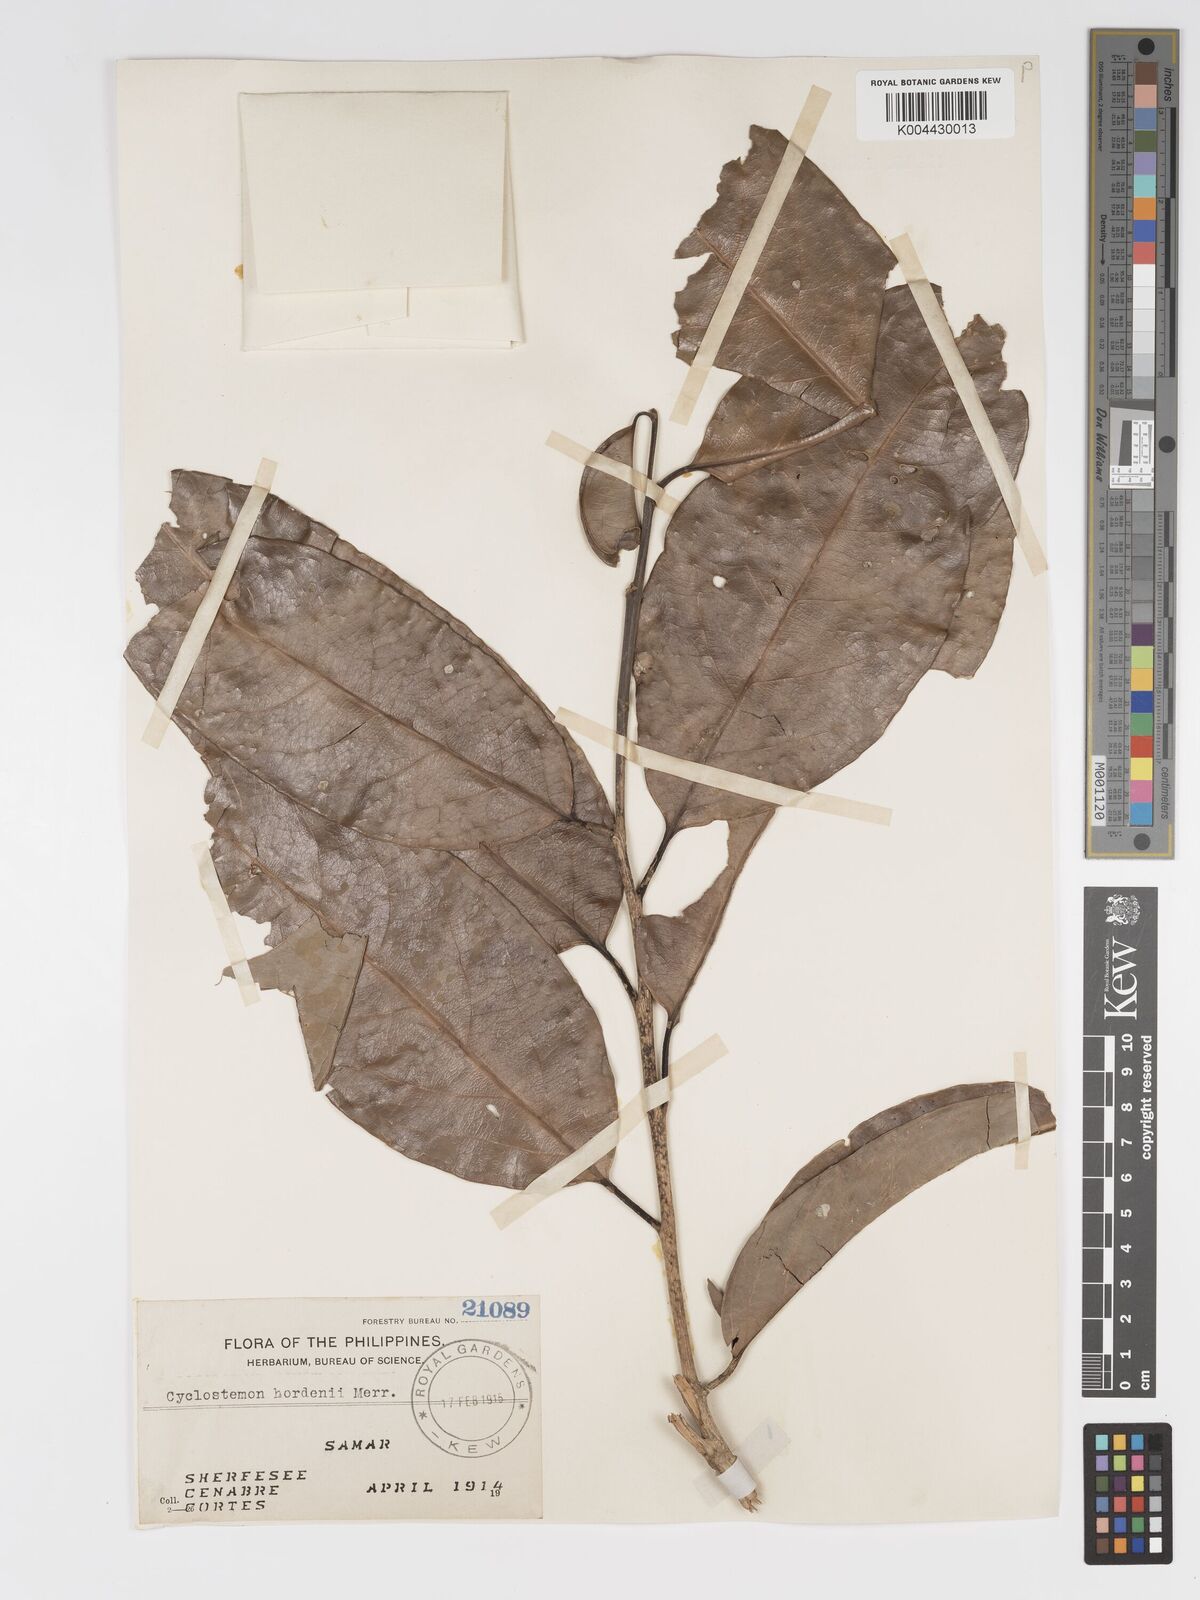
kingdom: Plantae
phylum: Tracheophyta
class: Magnoliopsida
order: Malpighiales
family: Putranjivaceae
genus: Drypetes
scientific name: Drypetes grandifolia
